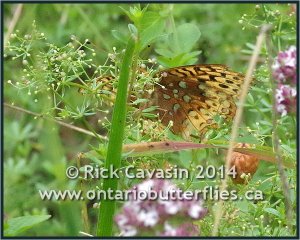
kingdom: Animalia
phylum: Arthropoda
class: Insecta
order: Lepidoptera
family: Nymphalidae
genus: Speyeria
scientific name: Speyeria cybele
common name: Great Spangled Fritillary
